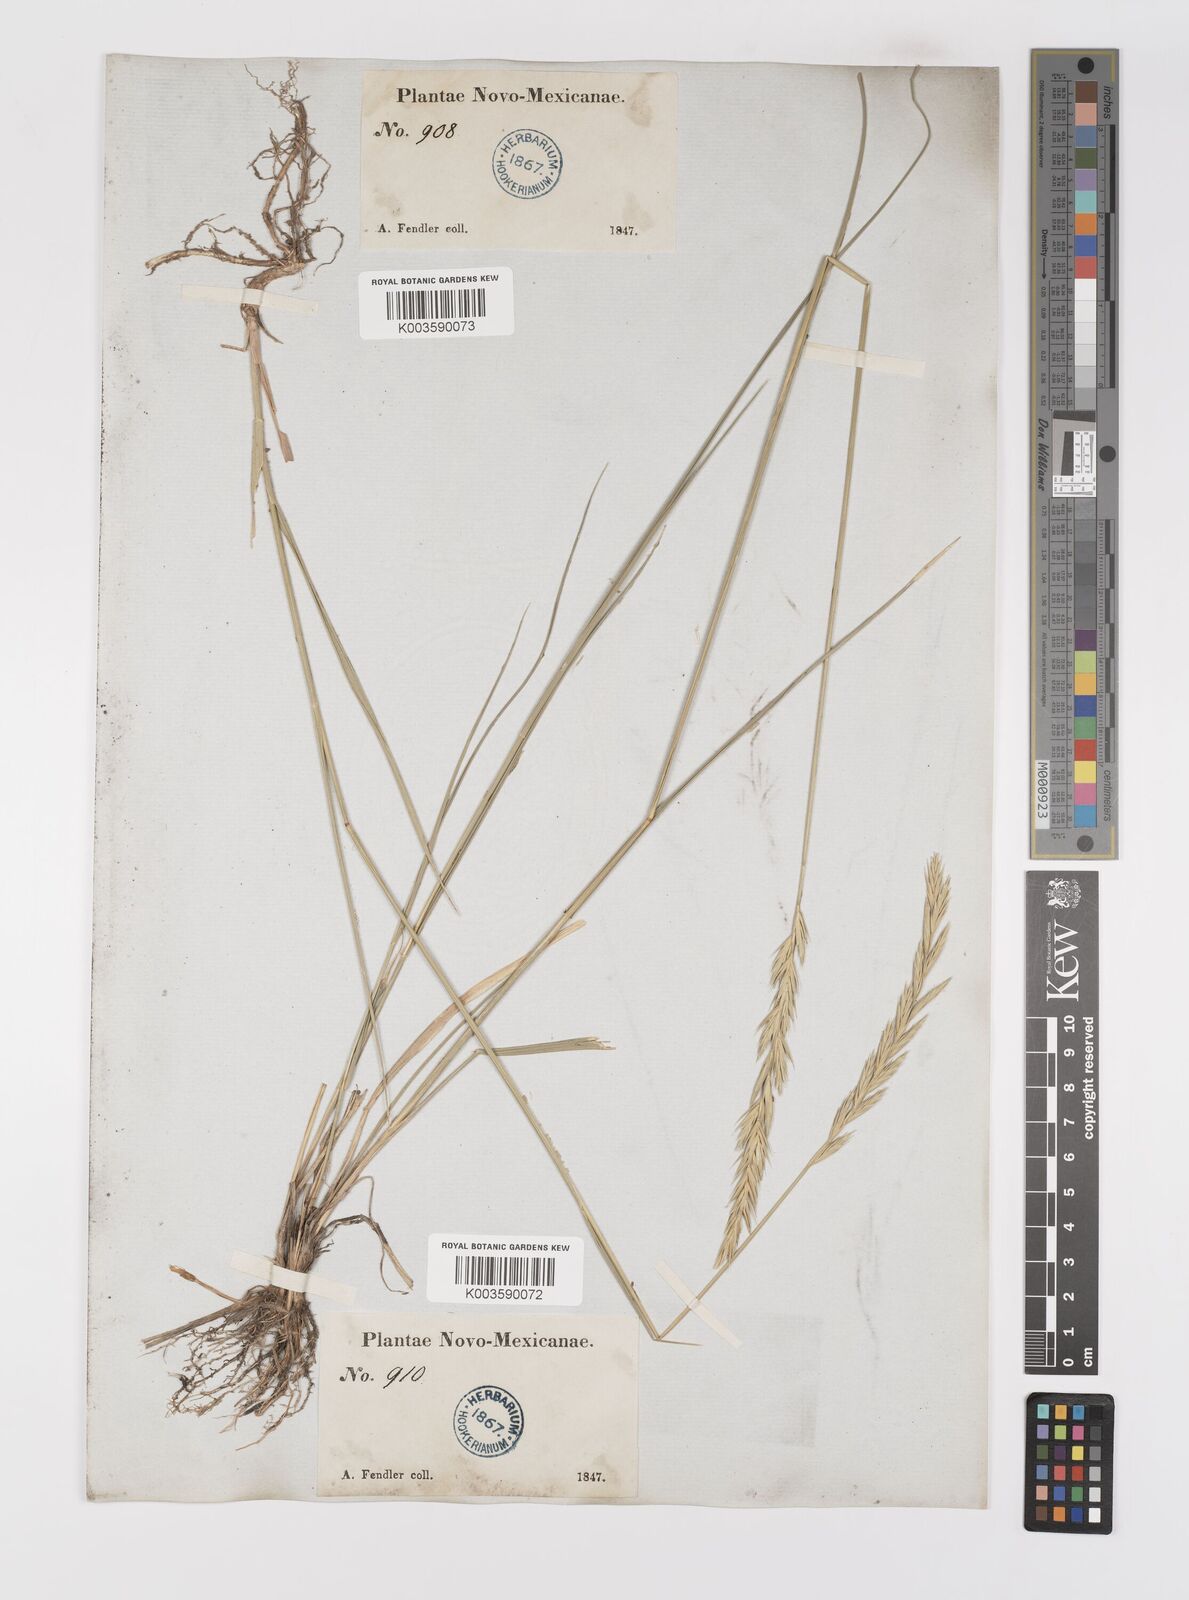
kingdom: Plantae
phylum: Tracheophyta
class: Liliopsida
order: Poales
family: Poaceae
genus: Elymus
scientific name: Elymus repens
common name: Quackgrass
